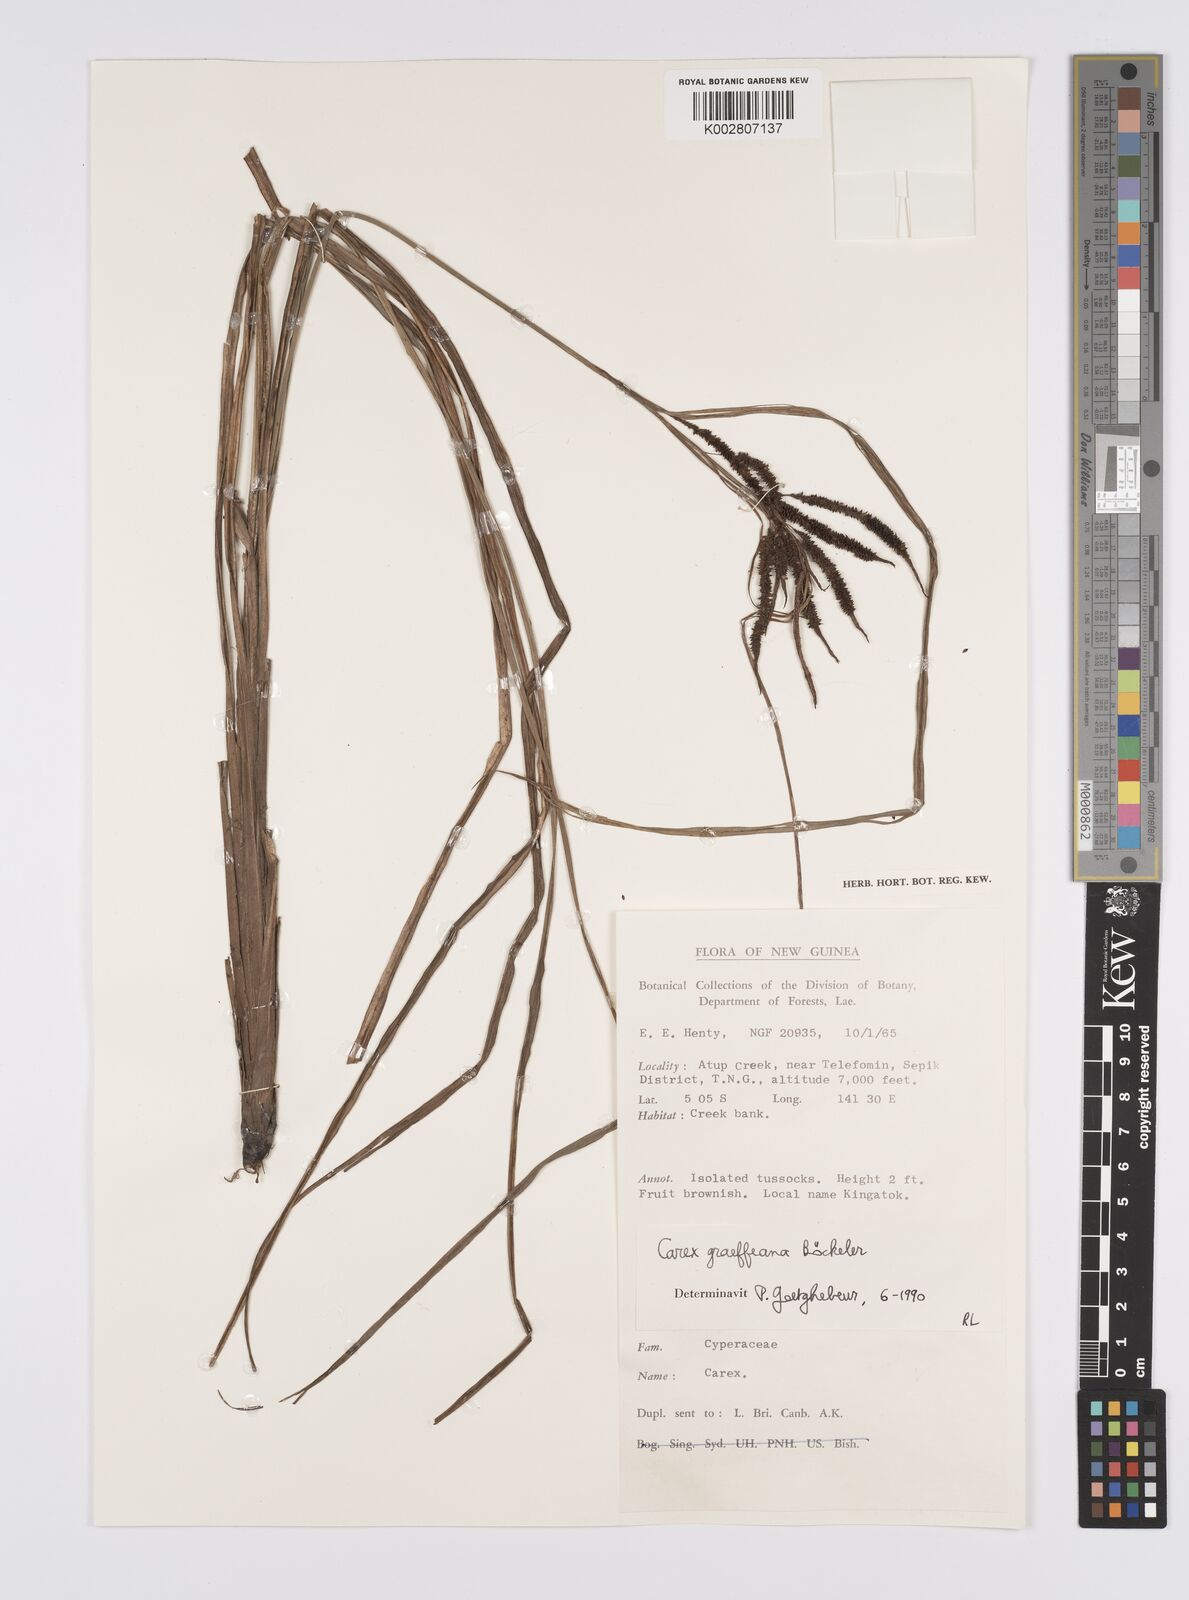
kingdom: Plantae
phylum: Tracheophyta
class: Liliopsida
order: Poales
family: Cyperaceae
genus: Carex
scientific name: Carex graeffeana
